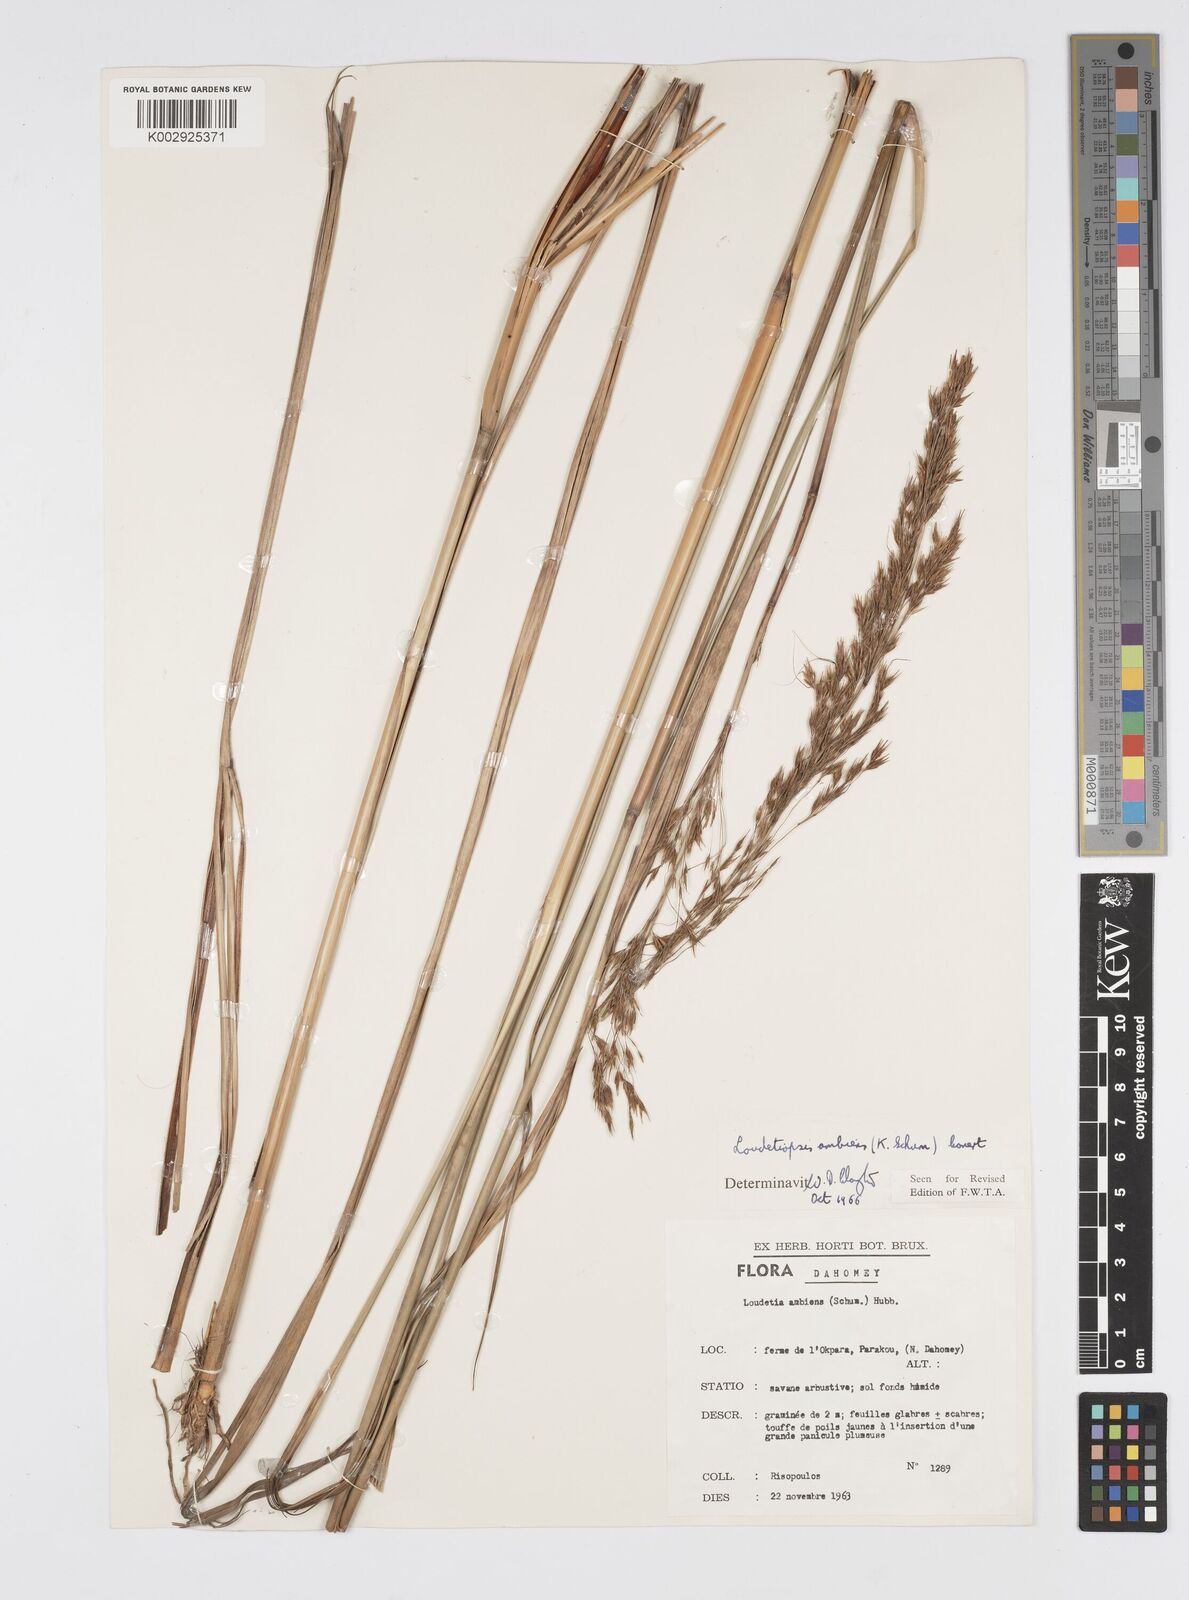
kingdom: Plantae
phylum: Tracheophyta
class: Liliopsida
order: Poales
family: Poaceae
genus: Loudetiopsis
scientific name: Loudetiopsis ambiens
